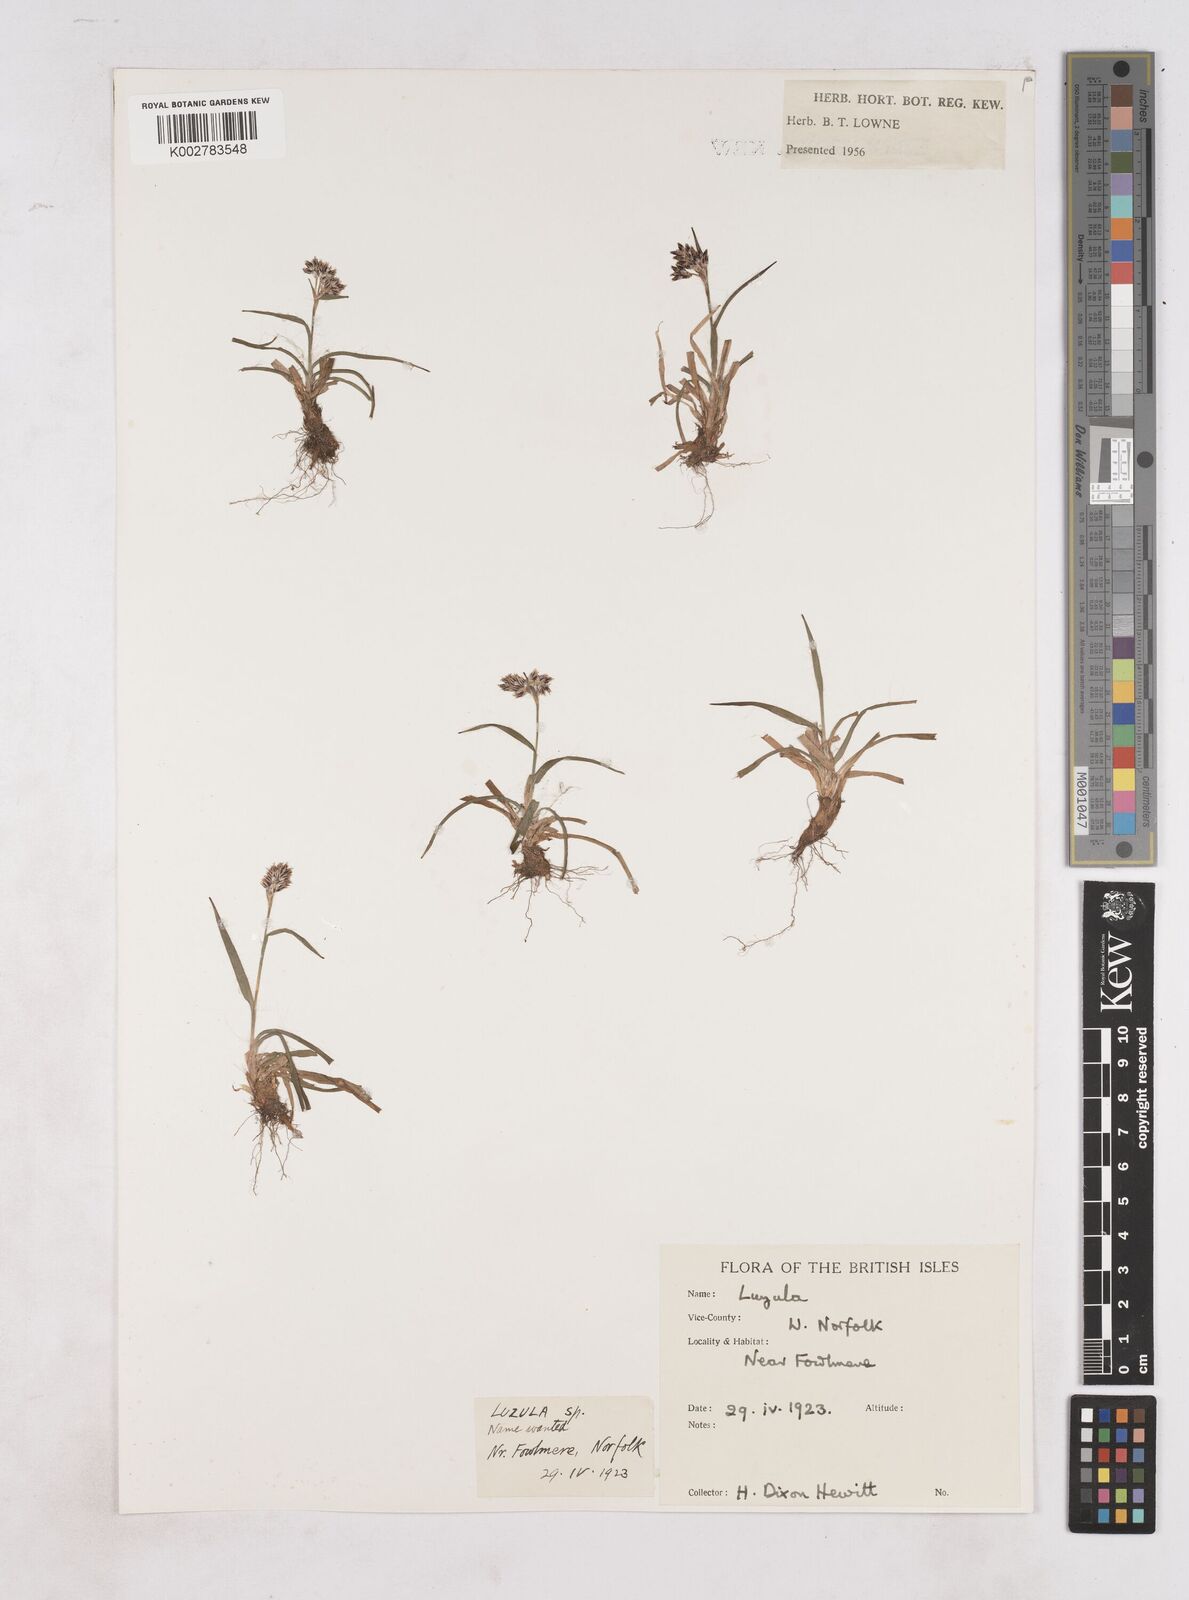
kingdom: Plantae
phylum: Tracheophyta
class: Liliopsida
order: Poales
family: Juncaceae
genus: Luzula
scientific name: Luzula
